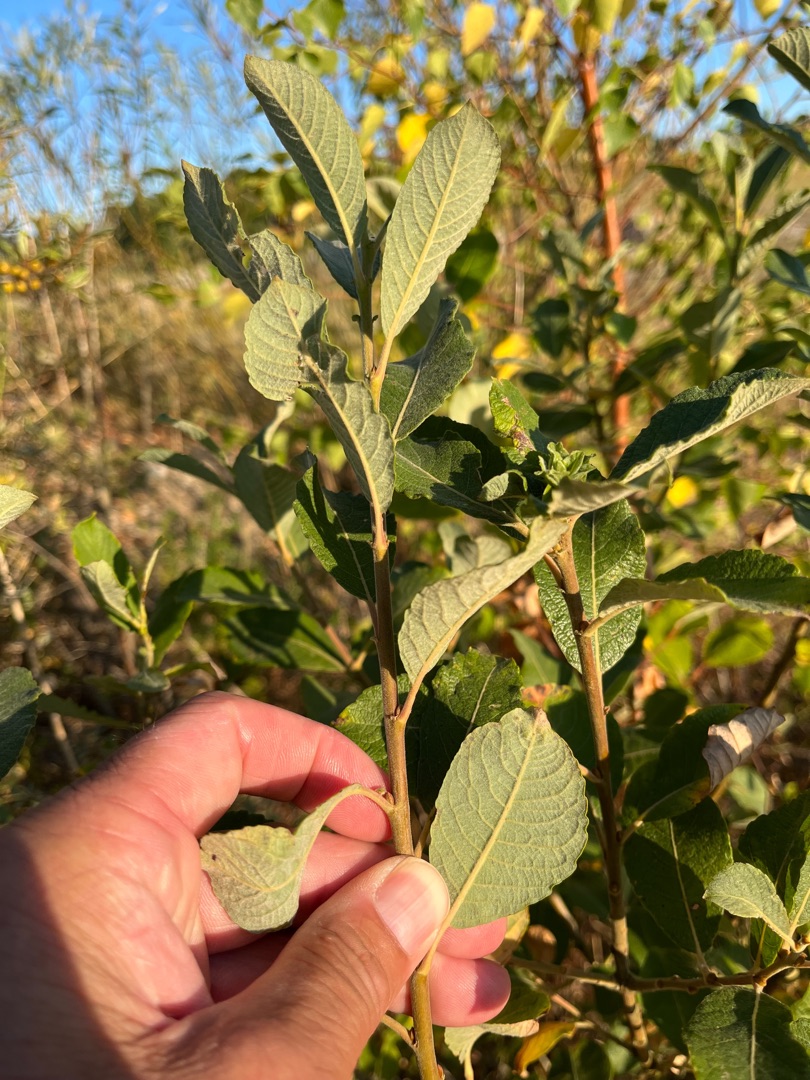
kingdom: Plantae
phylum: Tracheophyta
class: Magnoliopsida
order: Malpighiales
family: Salicaceae
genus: Salix
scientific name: Salix cinerea
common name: Grå-pil
